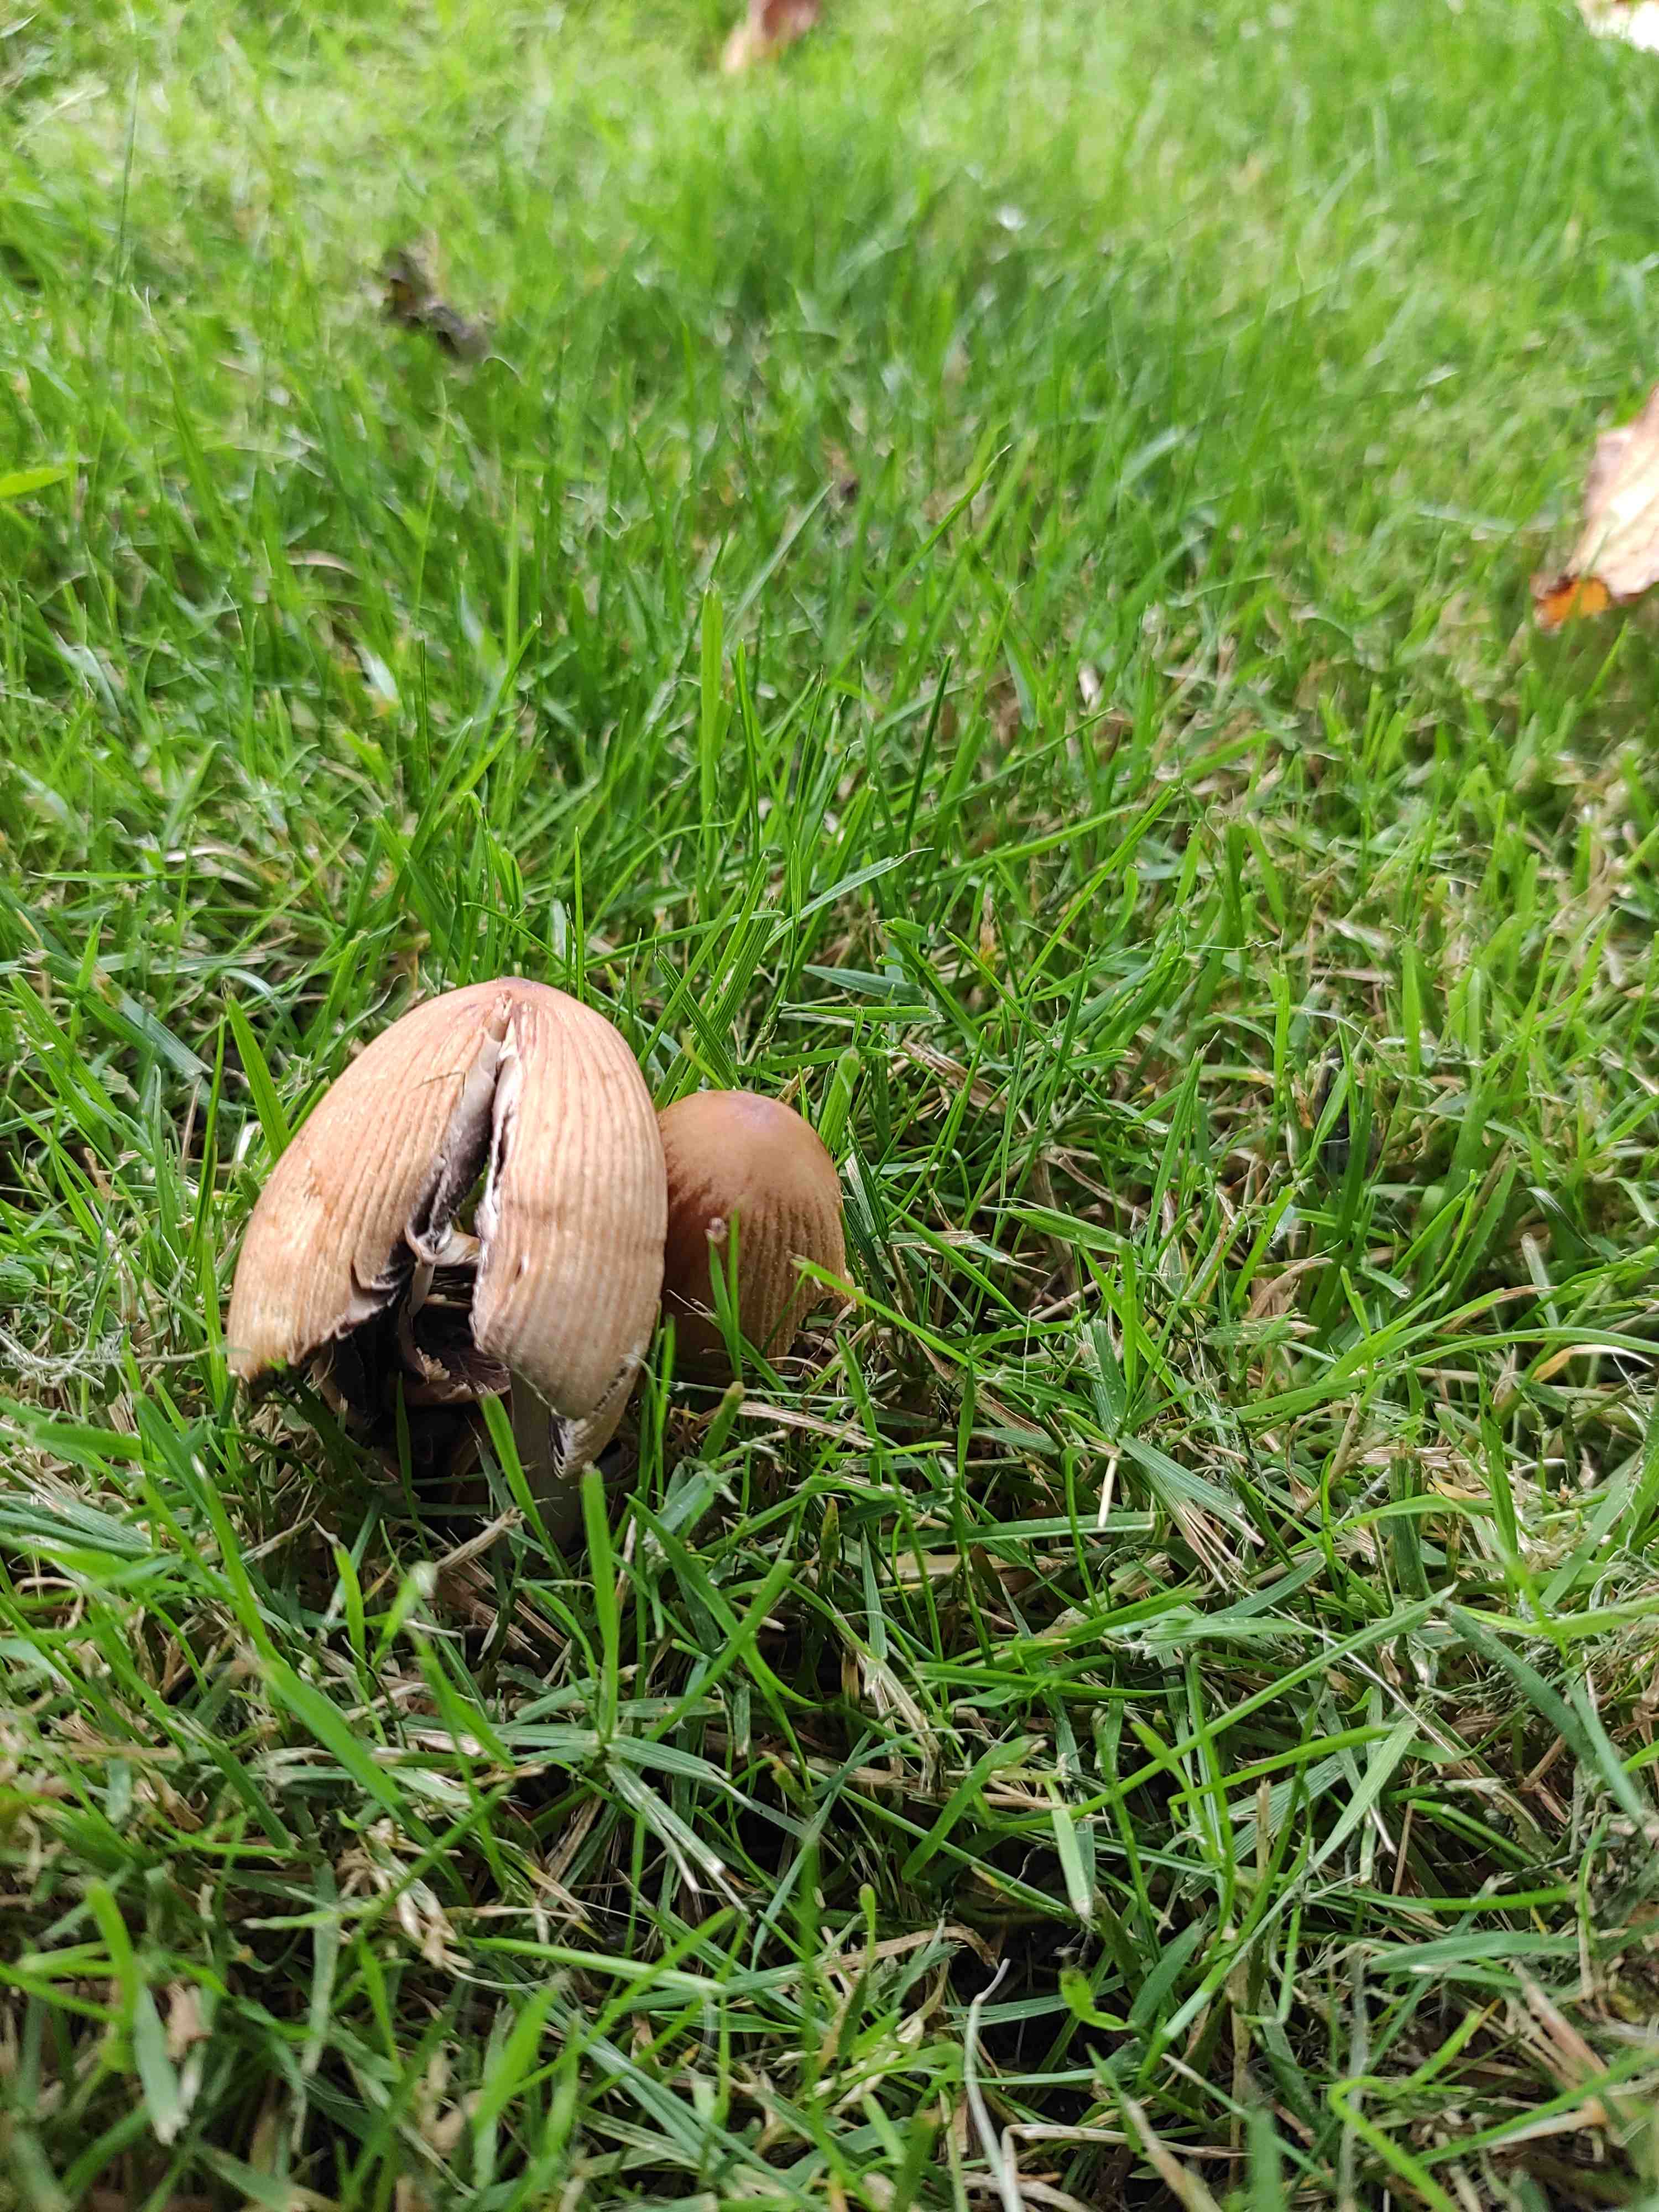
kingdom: Fungi
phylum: Basidiomycota
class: Agaricomycetes
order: Agaricales
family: Psathyrellaceae
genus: Coprinellus
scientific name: Coprinellus micaceus
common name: glimmer-blækhat
